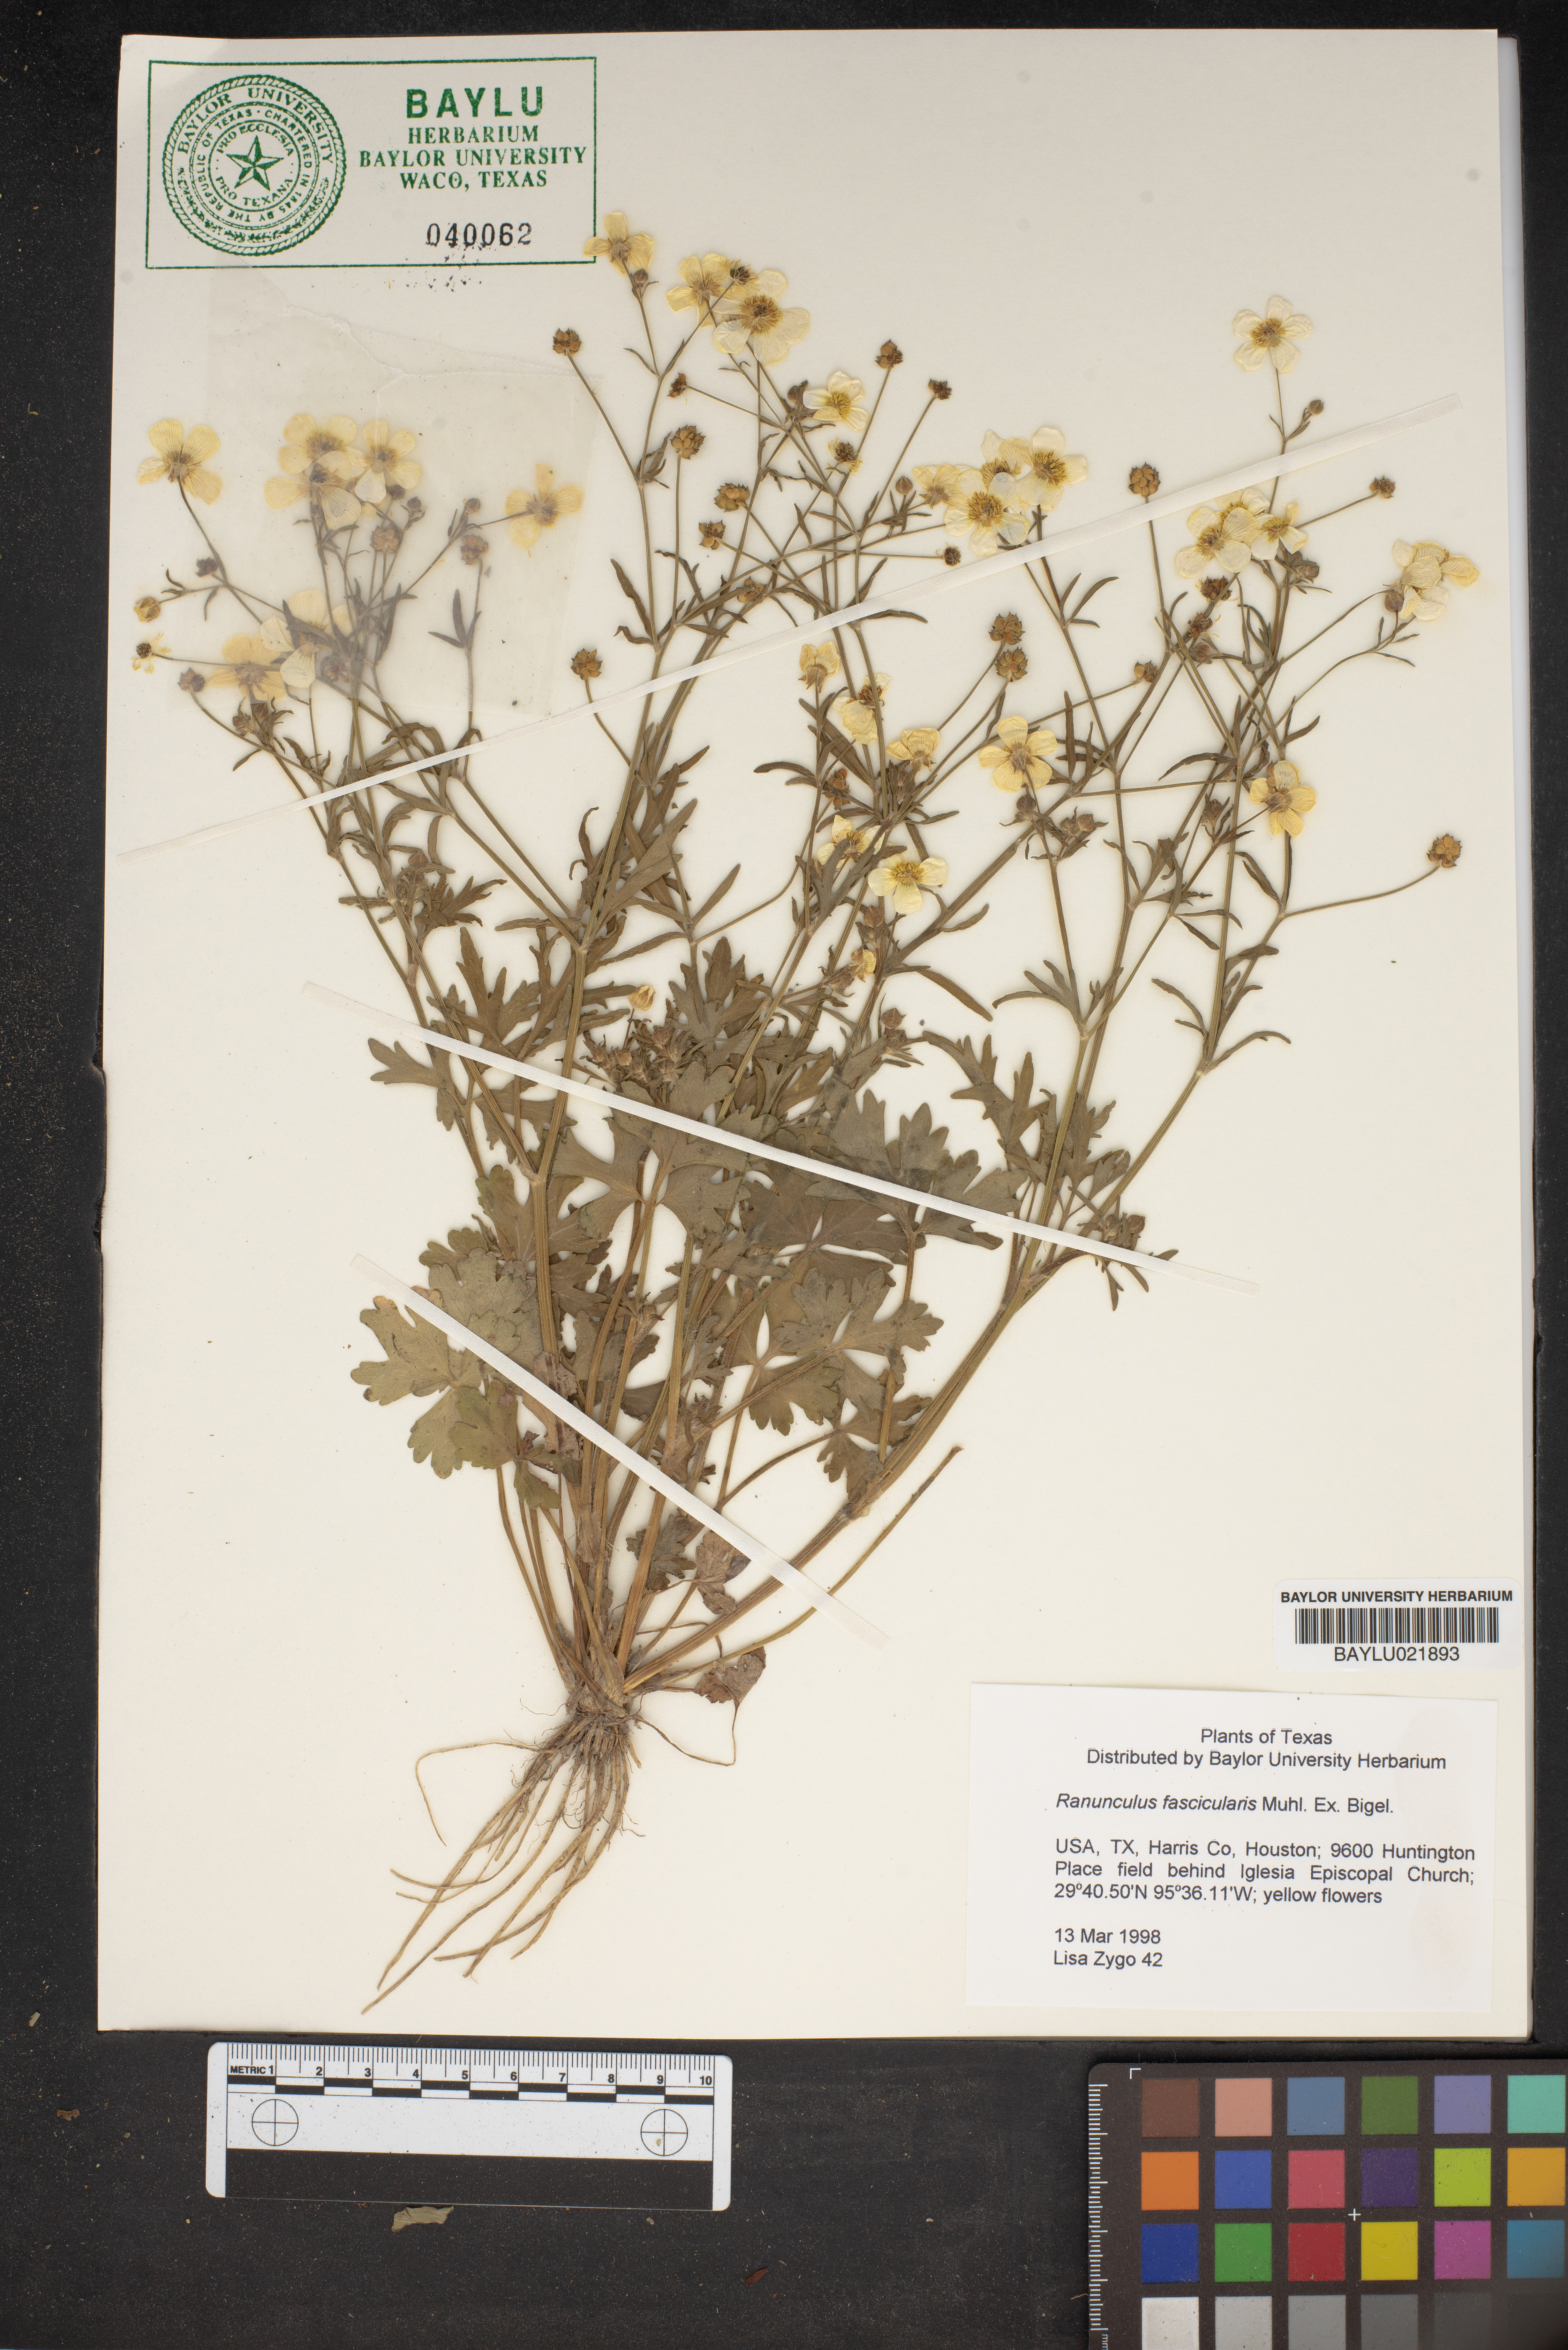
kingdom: Plantae
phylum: Tracheophyta
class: Magnoliopsida
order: Ranunculales
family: Ranunculaceae
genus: Ranunculus
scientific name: Ranunculus fascicularis
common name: Early buttercup
